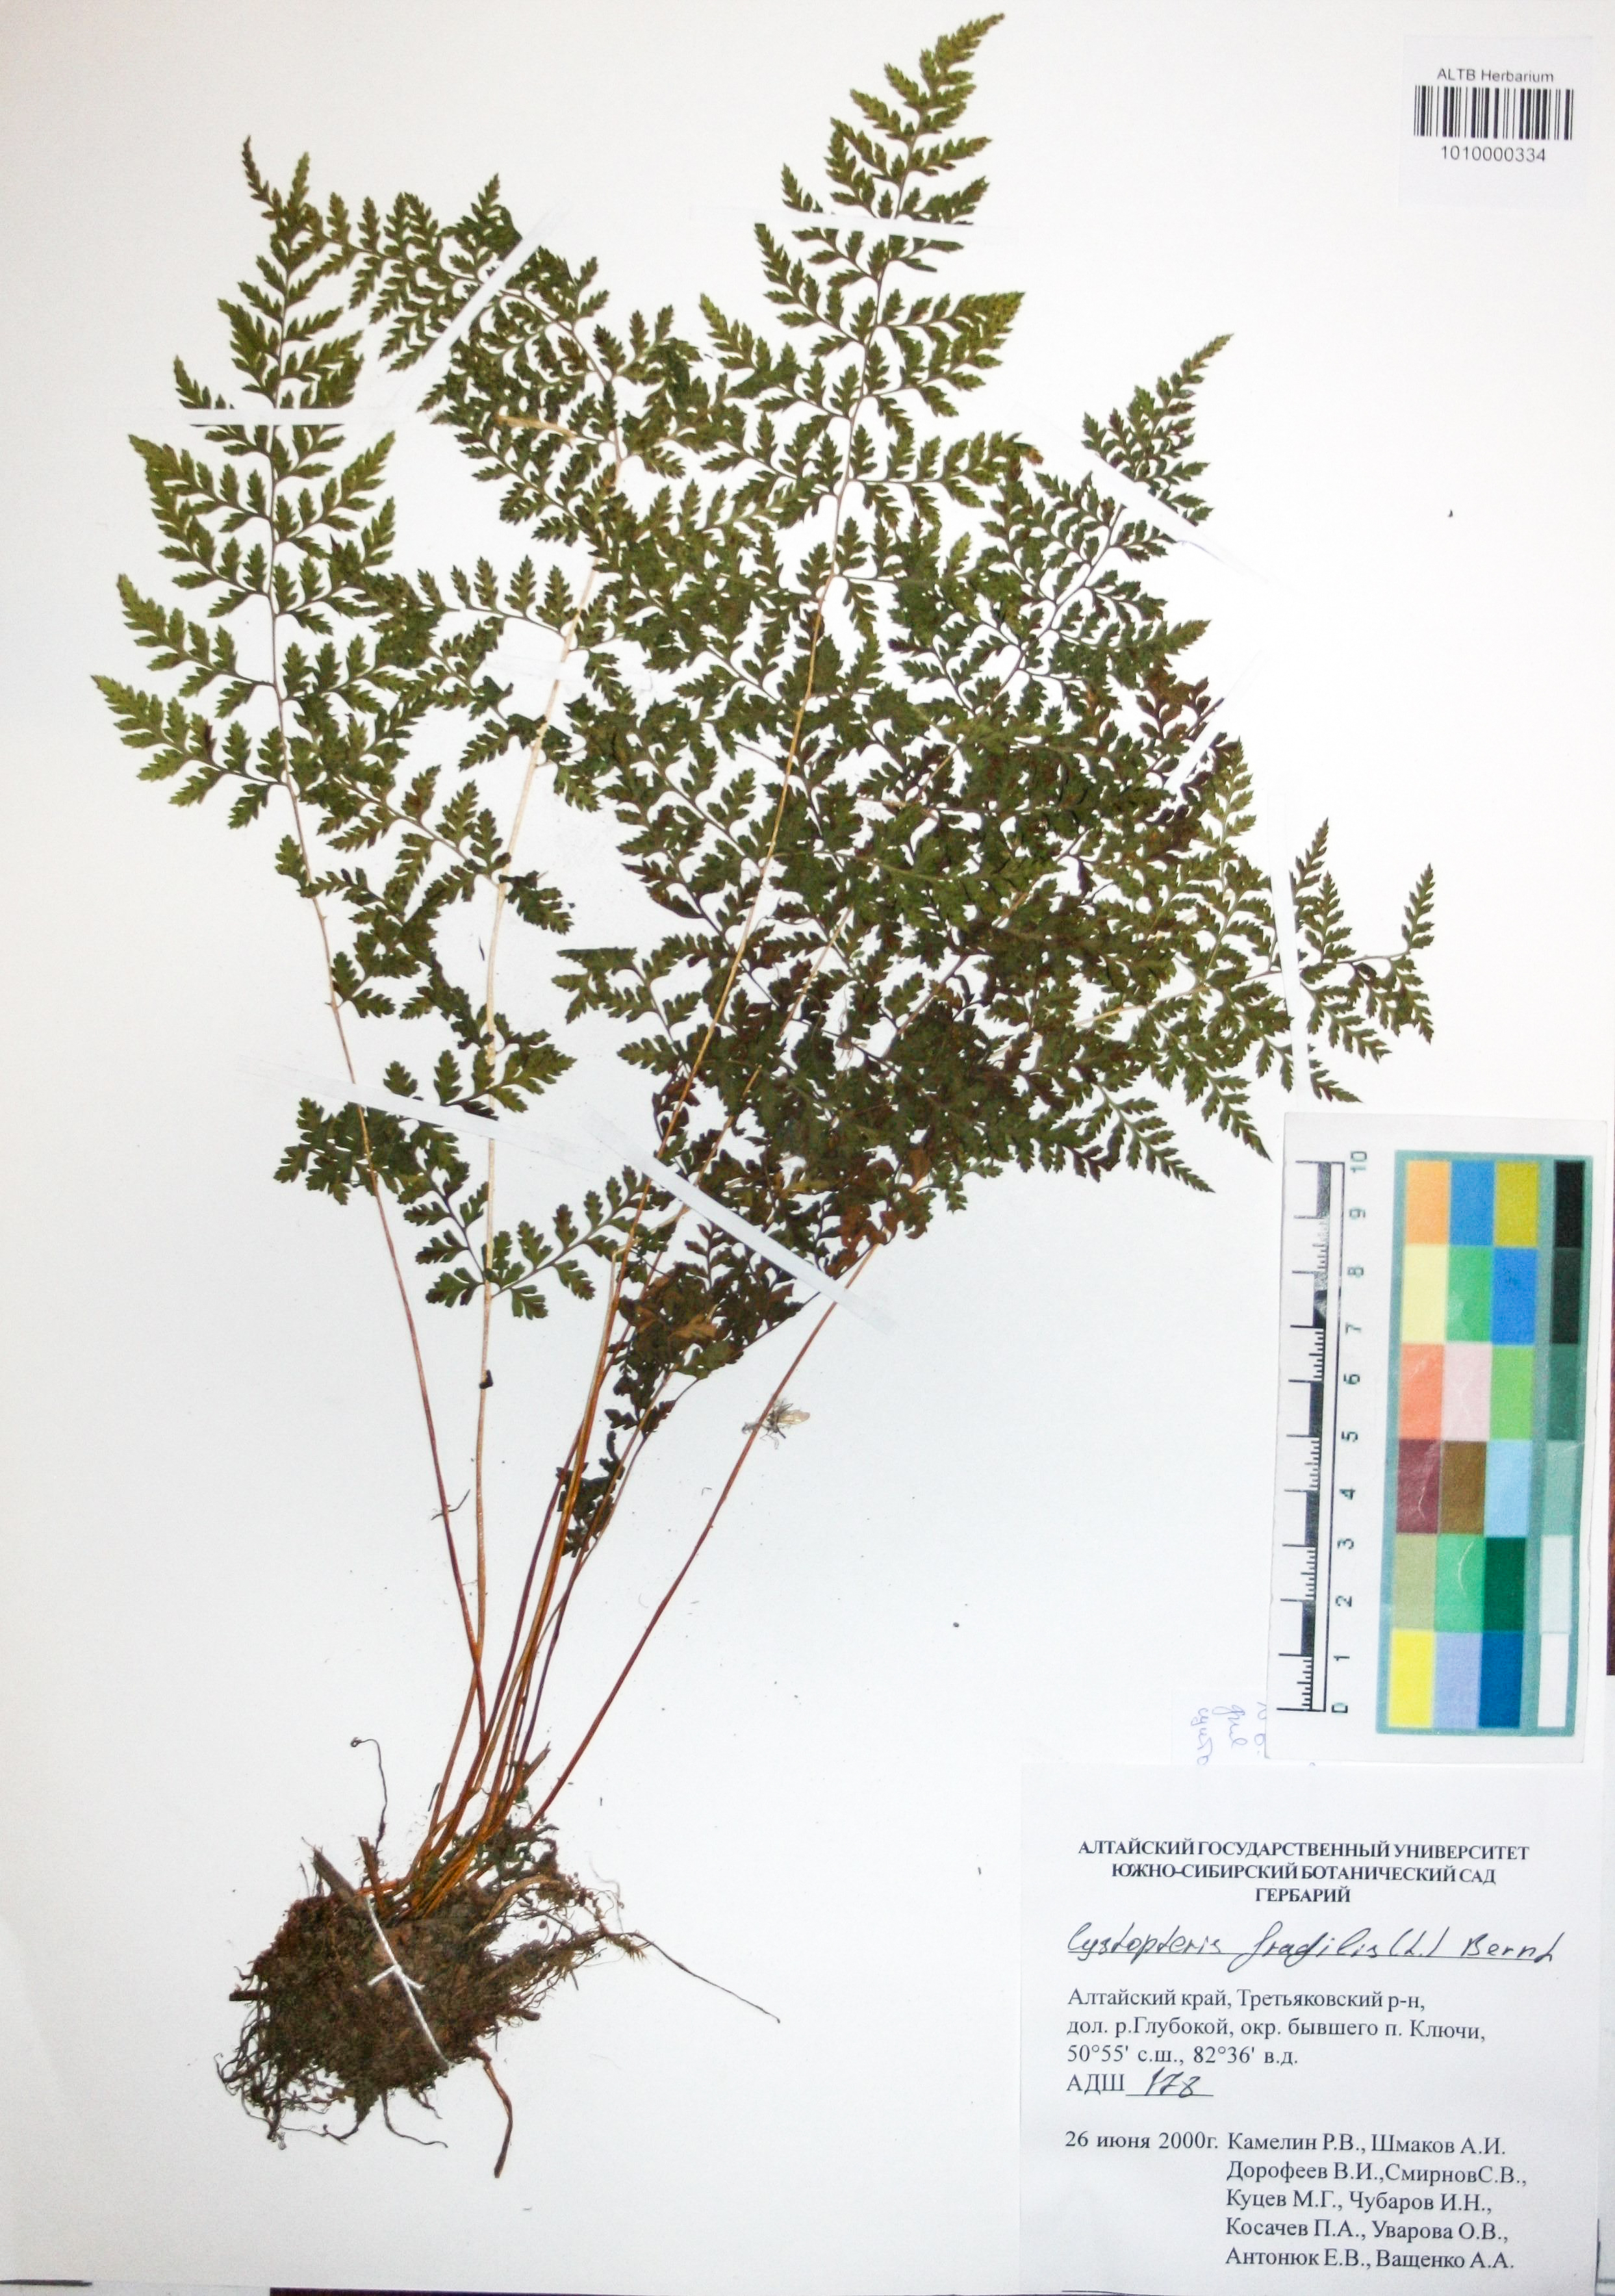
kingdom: Plantae
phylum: Tracheophyta
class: Polypodiopsida
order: Polypodiales
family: Cystopteridaceae
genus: Cystopteris
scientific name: Cystopteris fragilis
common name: Brittle bladder fern
